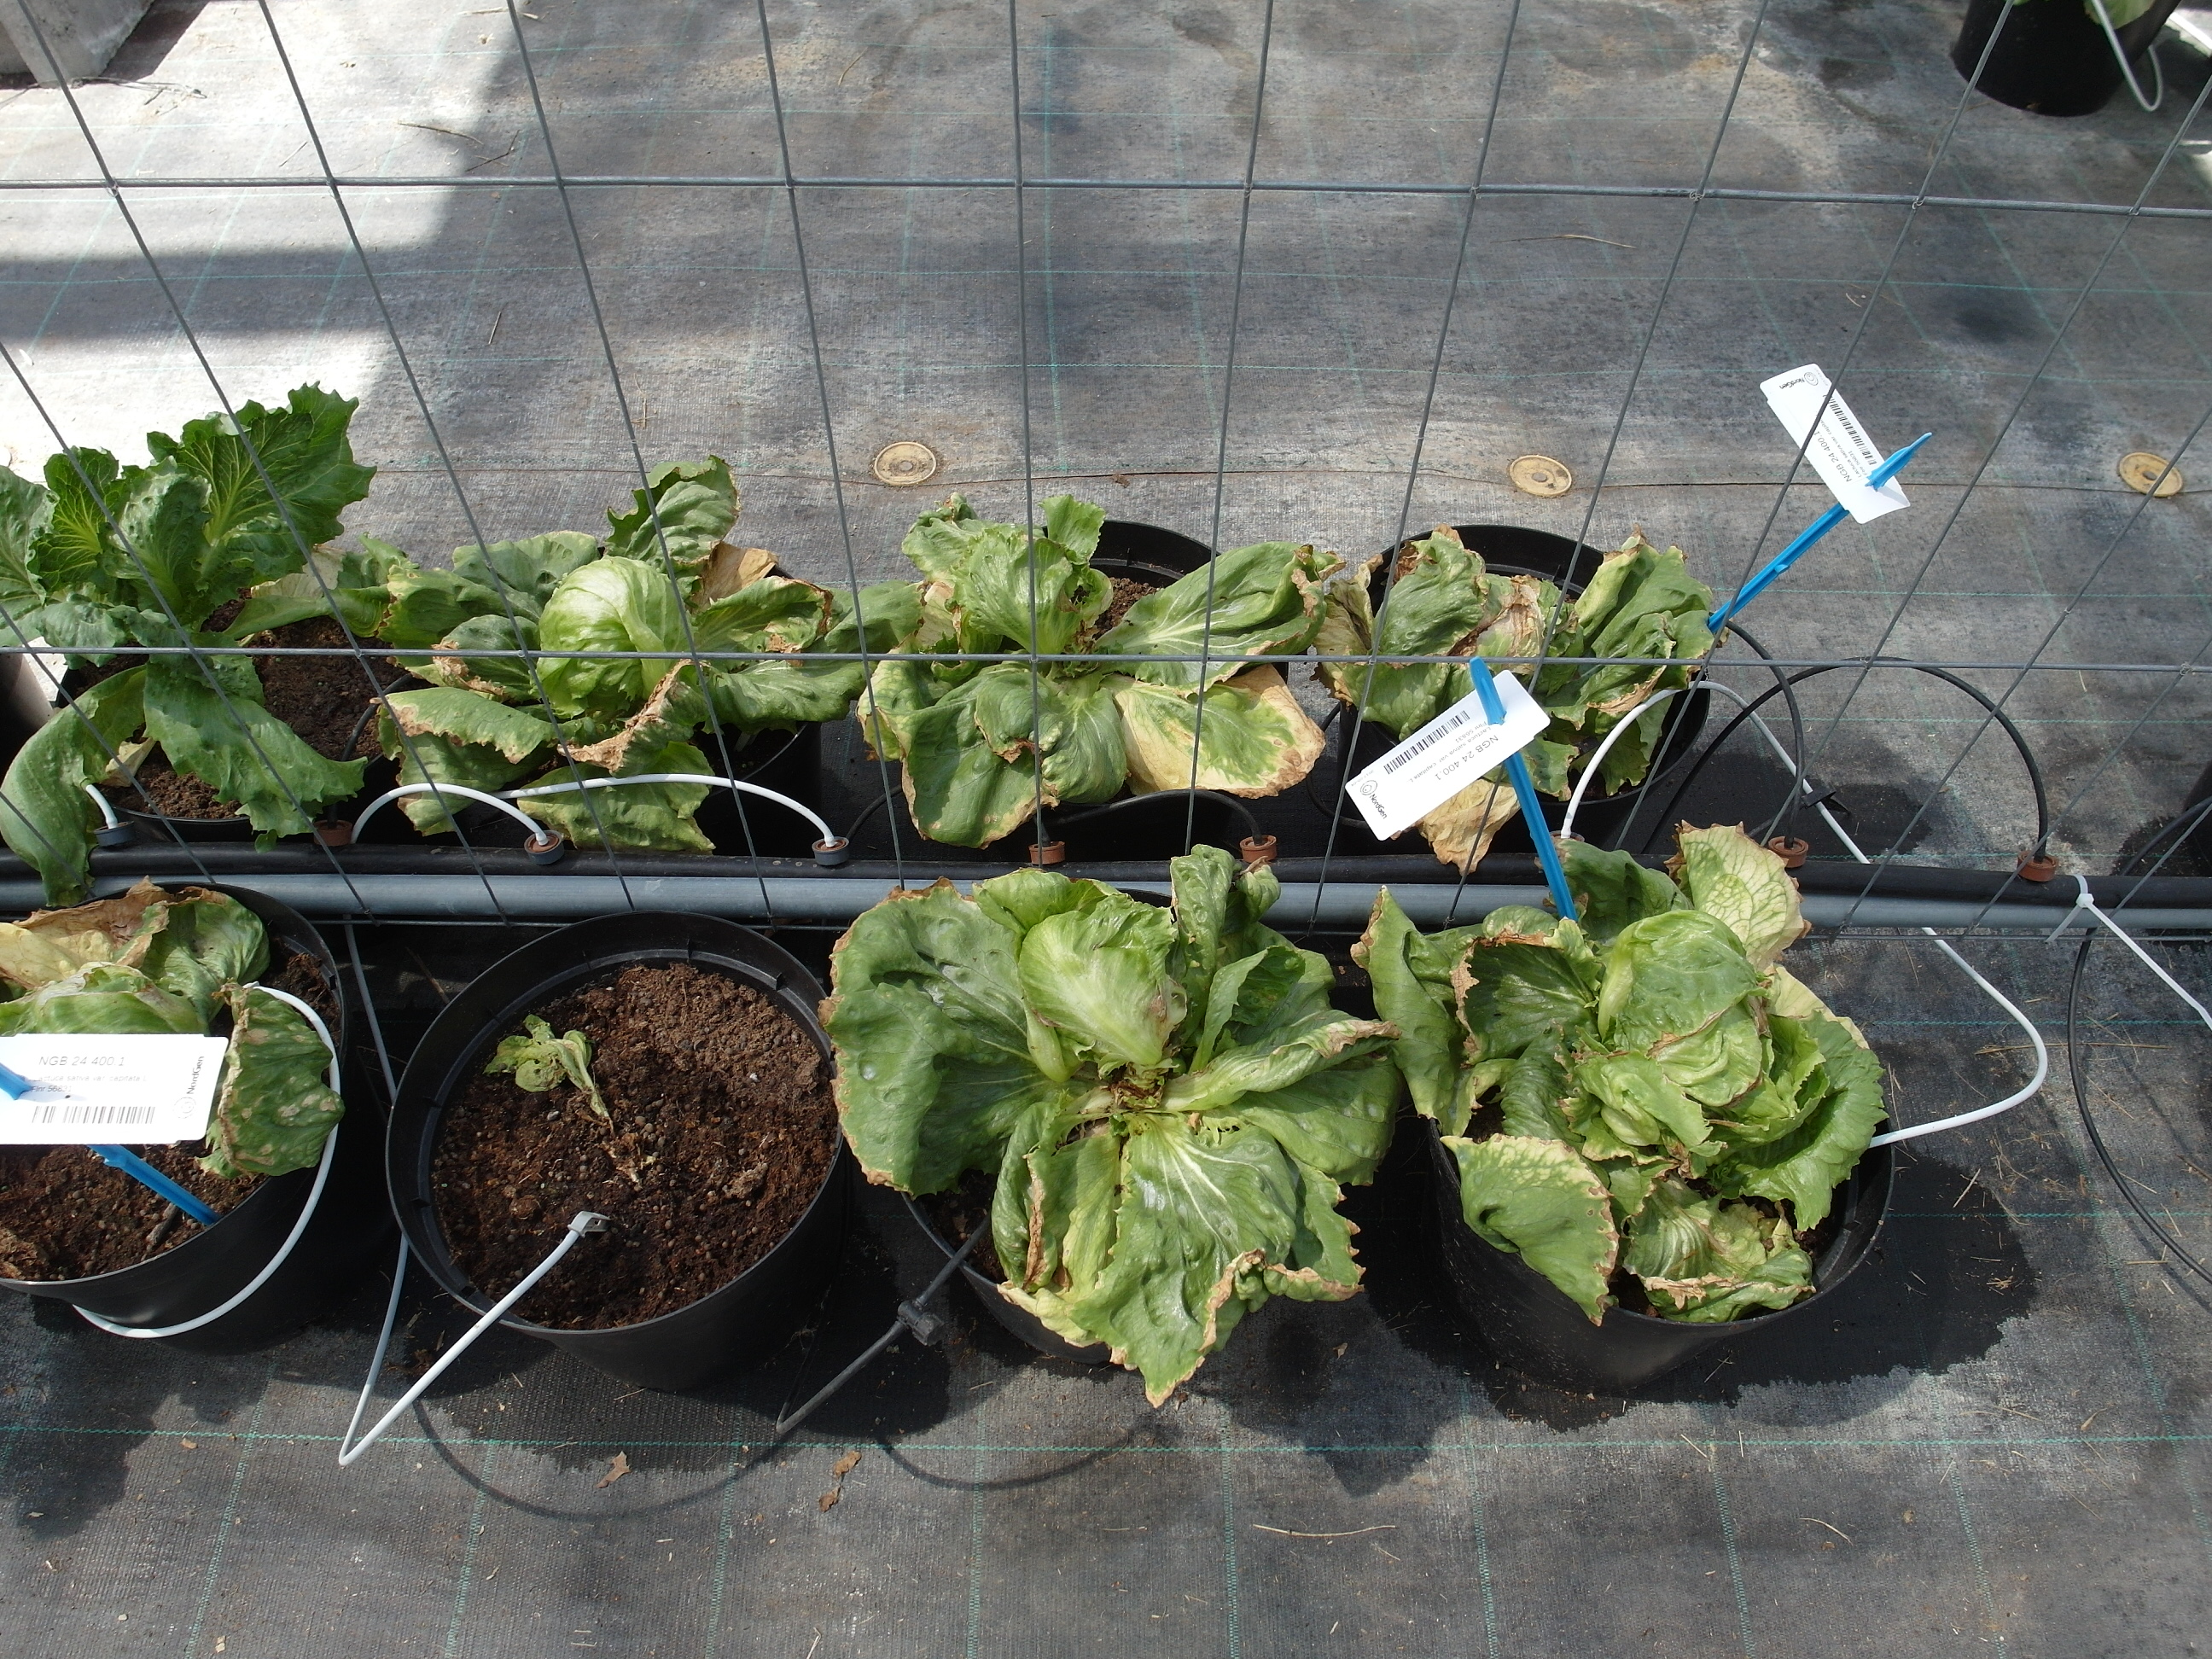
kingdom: Plantae
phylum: Tracheophyta
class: Magnoliopsida
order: Asterales
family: Asteraceae
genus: Lactuca
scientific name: Lactuca sativa
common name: Garden lettuce
